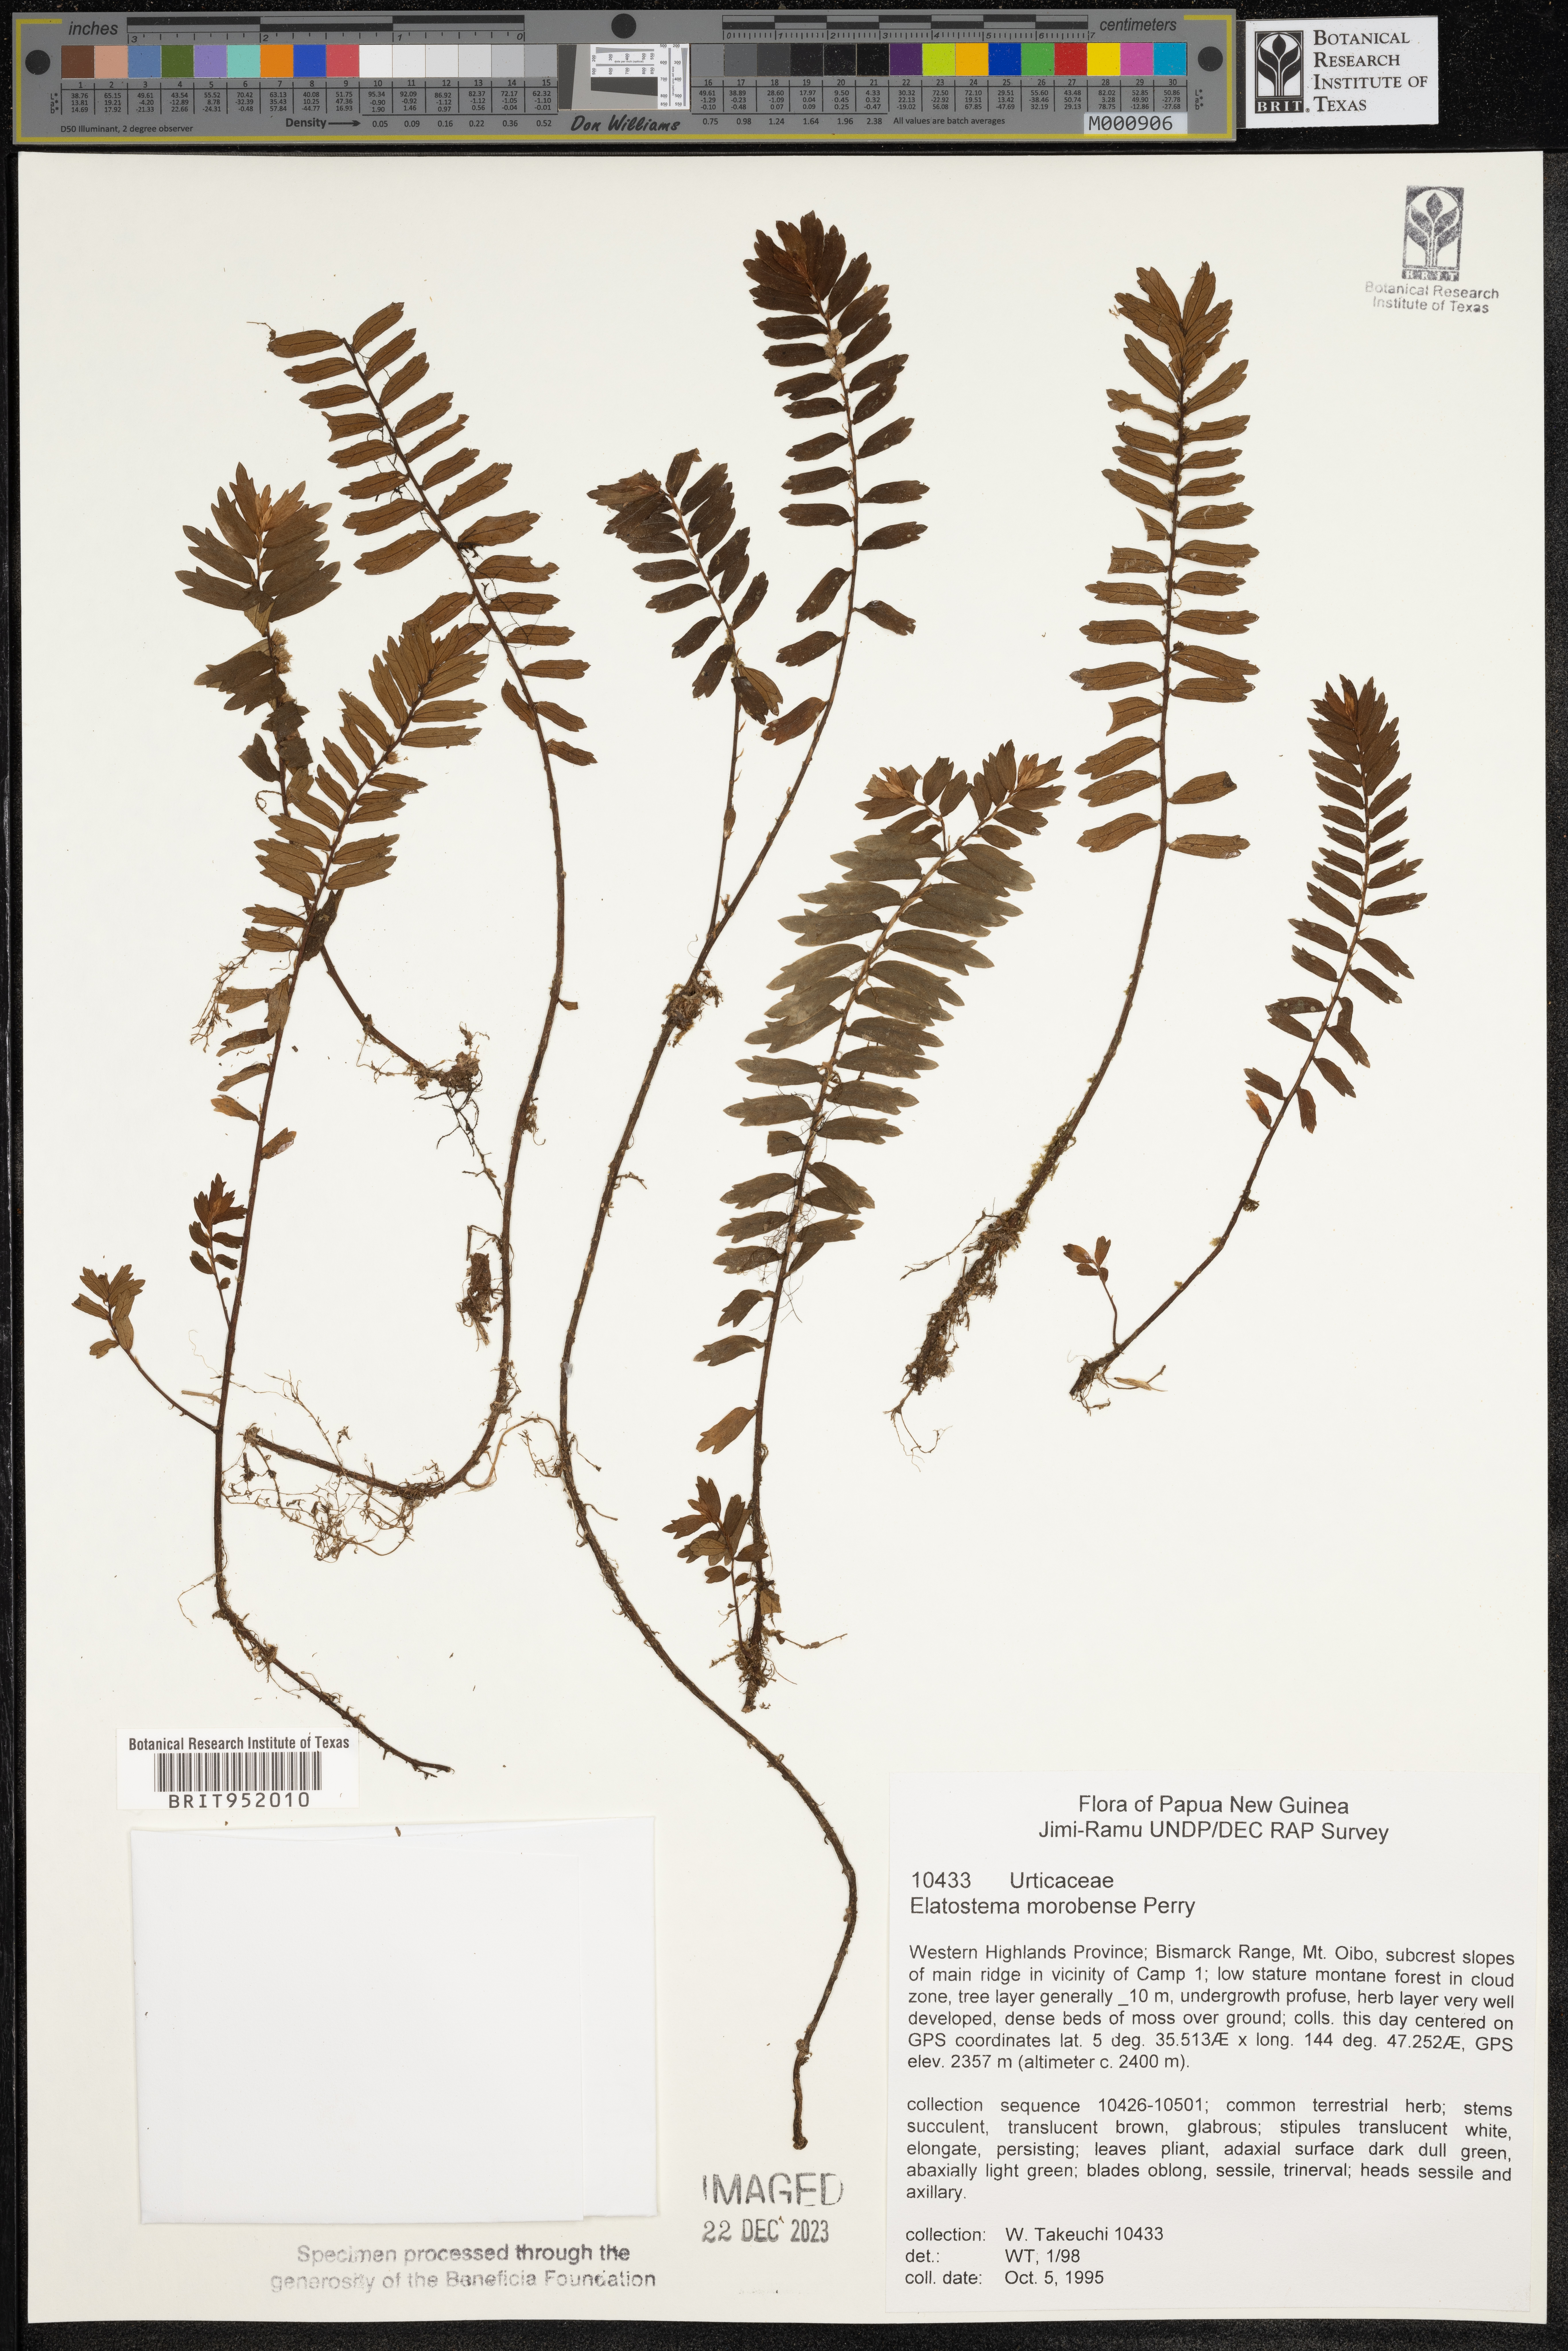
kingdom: Plantae
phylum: Tracheophyta
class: Magnoliopsida
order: Rosales
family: Urticaceae
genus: Elatostema
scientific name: Elatostema
